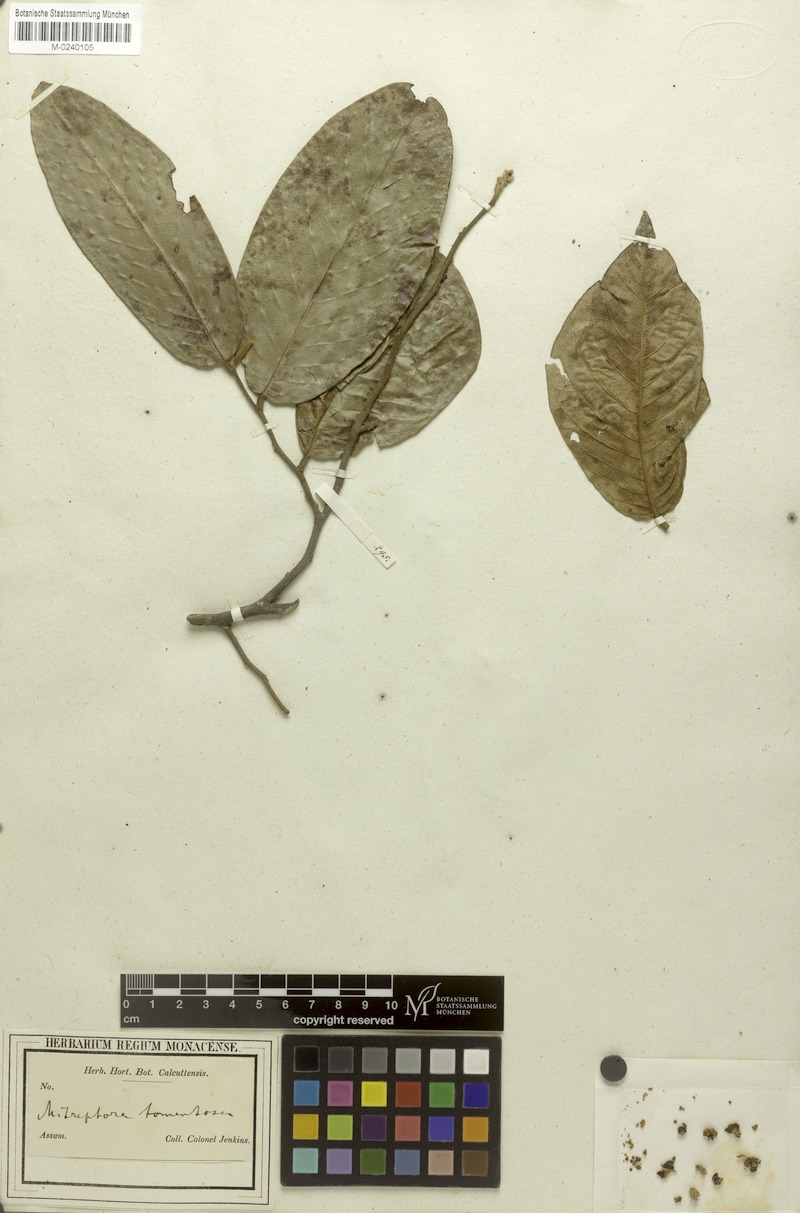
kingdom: Plantae
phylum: Tracheophyta
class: Magnoliopsida
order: Magnoliales
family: Annonaceae
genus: Mitrephora
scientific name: Mitrephora tomentosa
